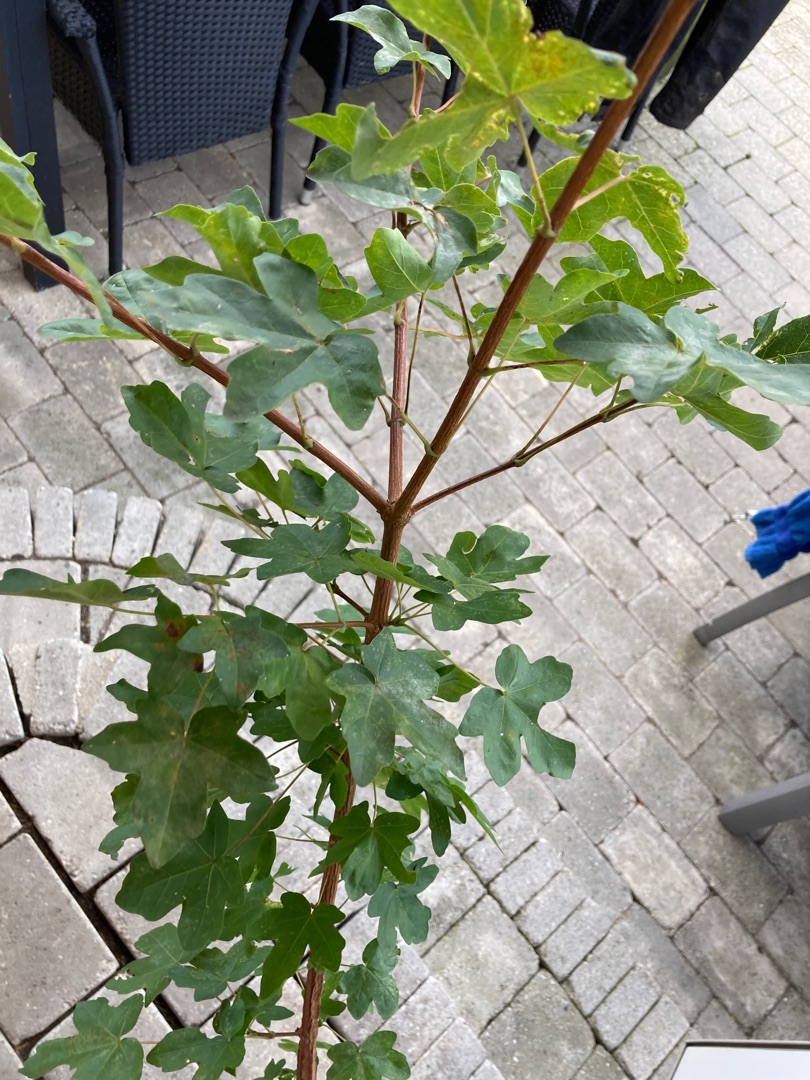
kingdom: Plantae
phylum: Tracheophyta
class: Magnoliopsida
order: Sapindales
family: Sapindaceae
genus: Acer
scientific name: Acer campestre
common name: Navr
